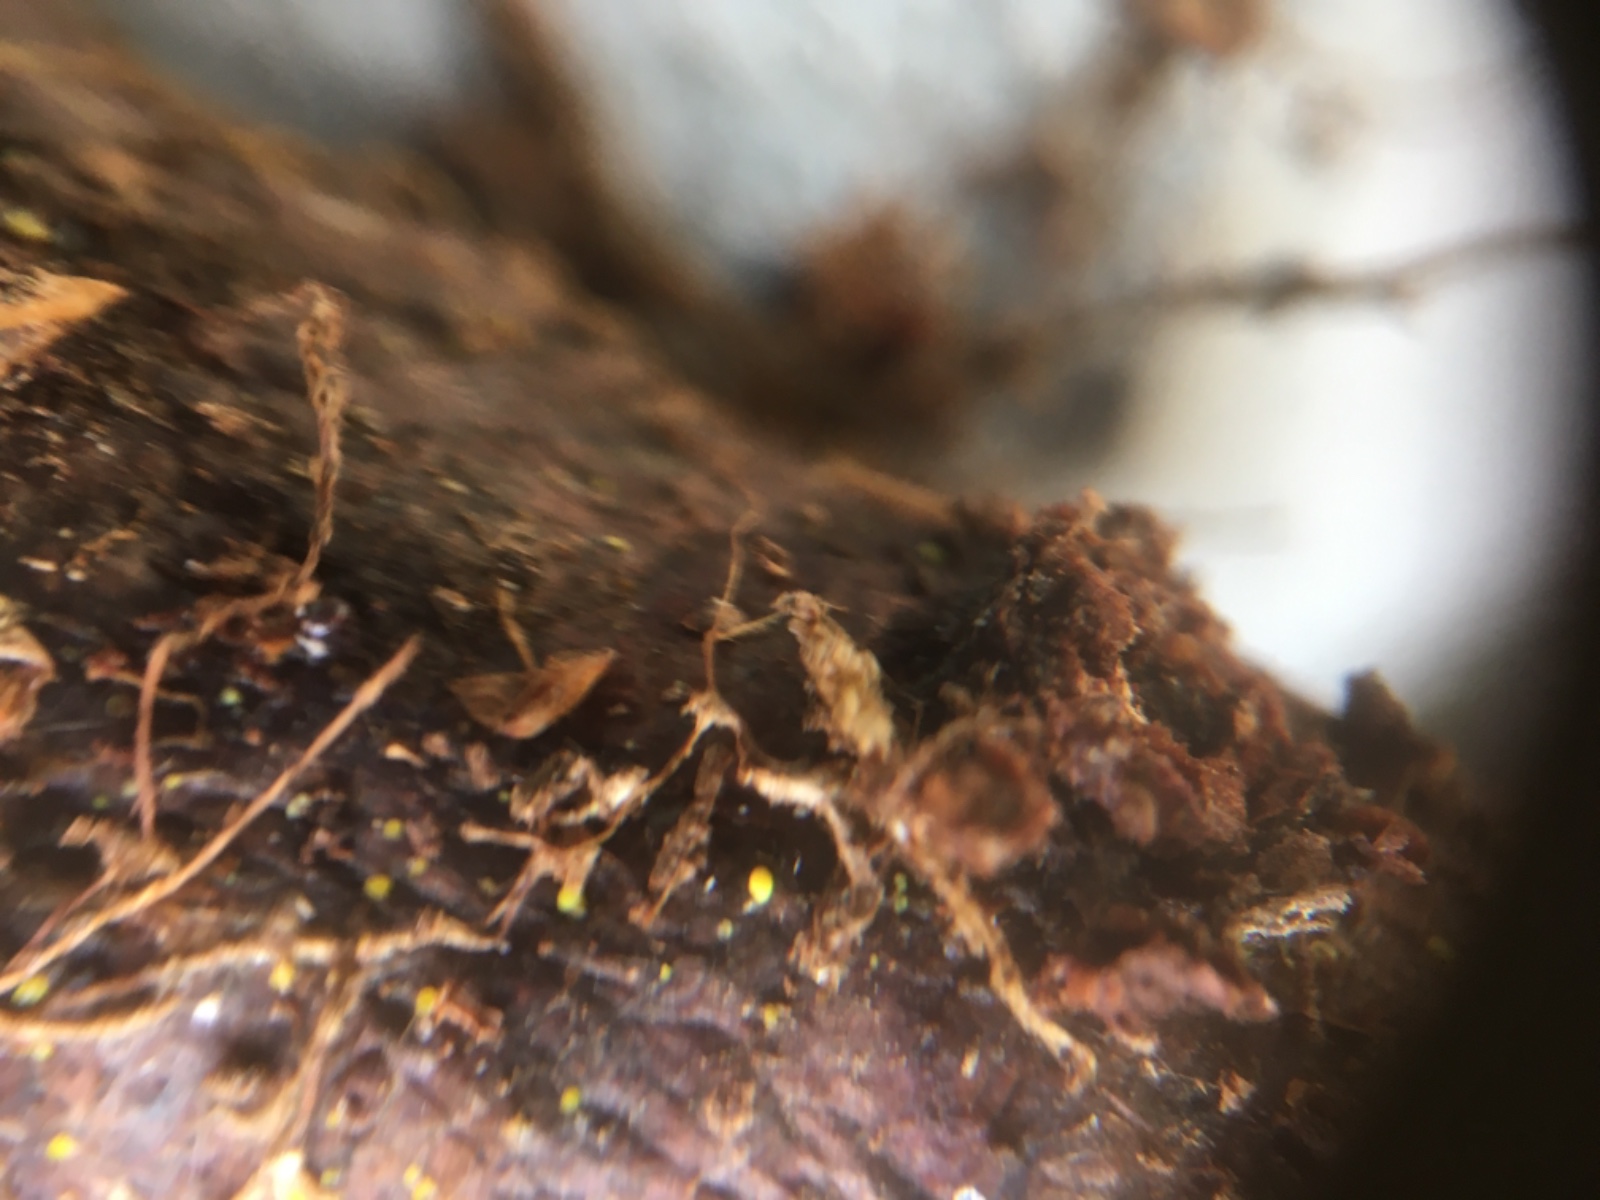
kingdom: Fungi
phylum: Ascomycota
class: Leotiomycetes
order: Helotiales
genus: Lemalis
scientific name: Lemalis aurea
